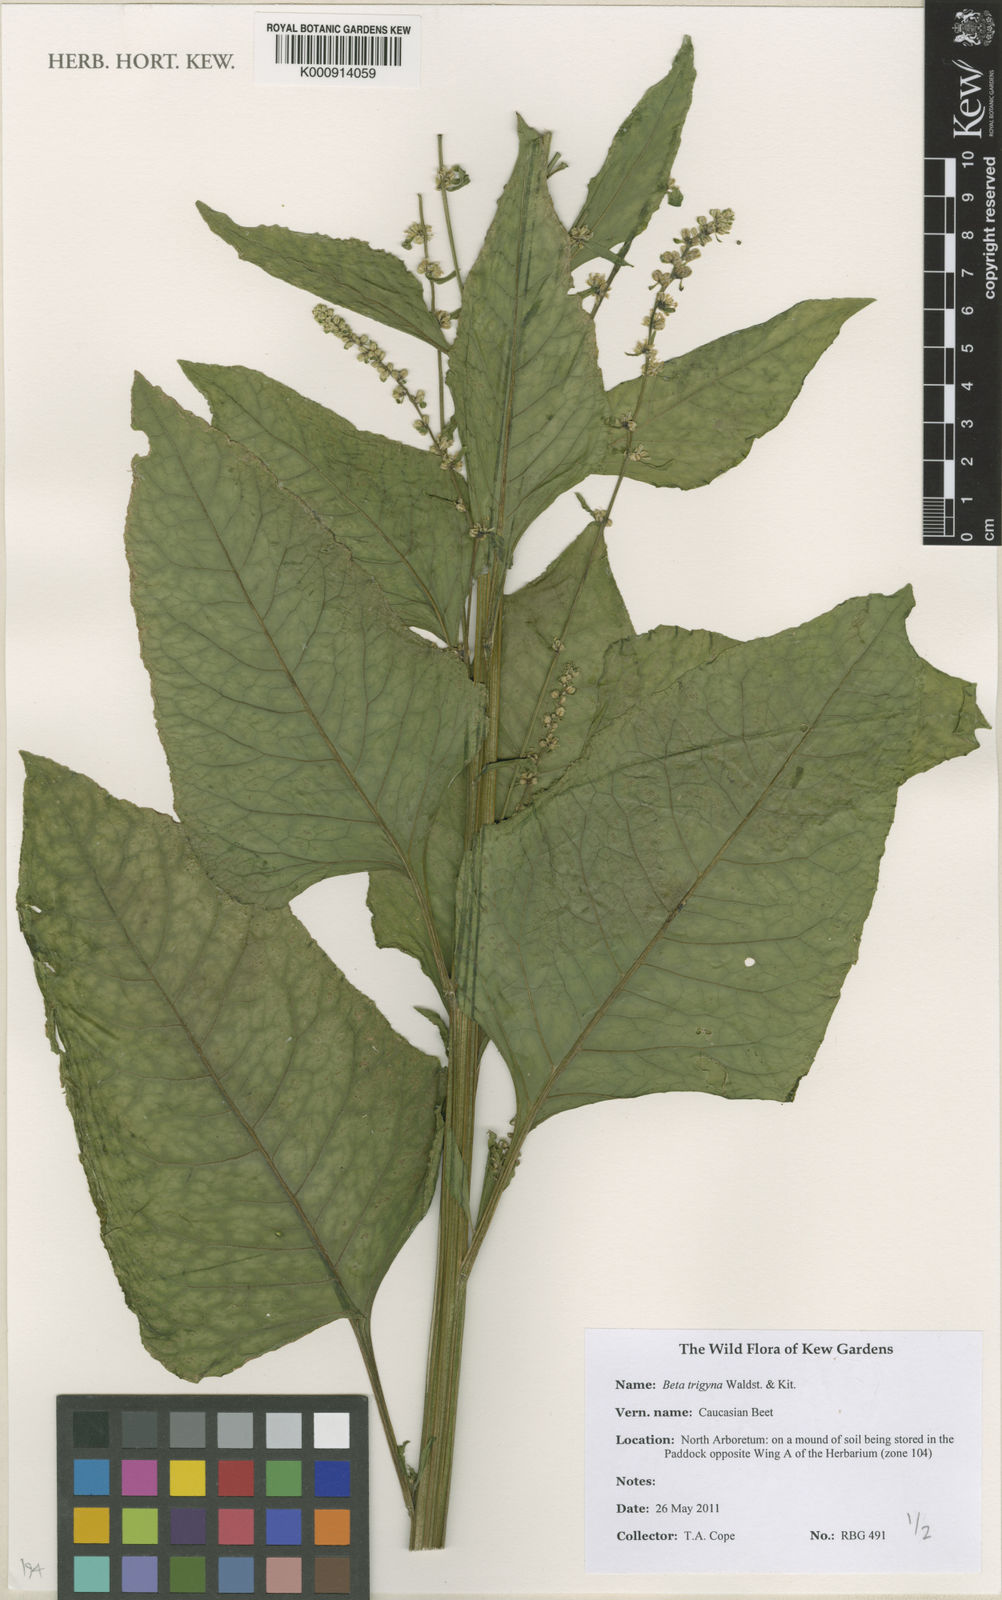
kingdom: Plantae
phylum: Tracheophyta
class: Magnoliopsida
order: Caryophyllales
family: Amaranthaceae
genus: Beta
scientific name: Beta trigyna
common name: Caucasian beet
